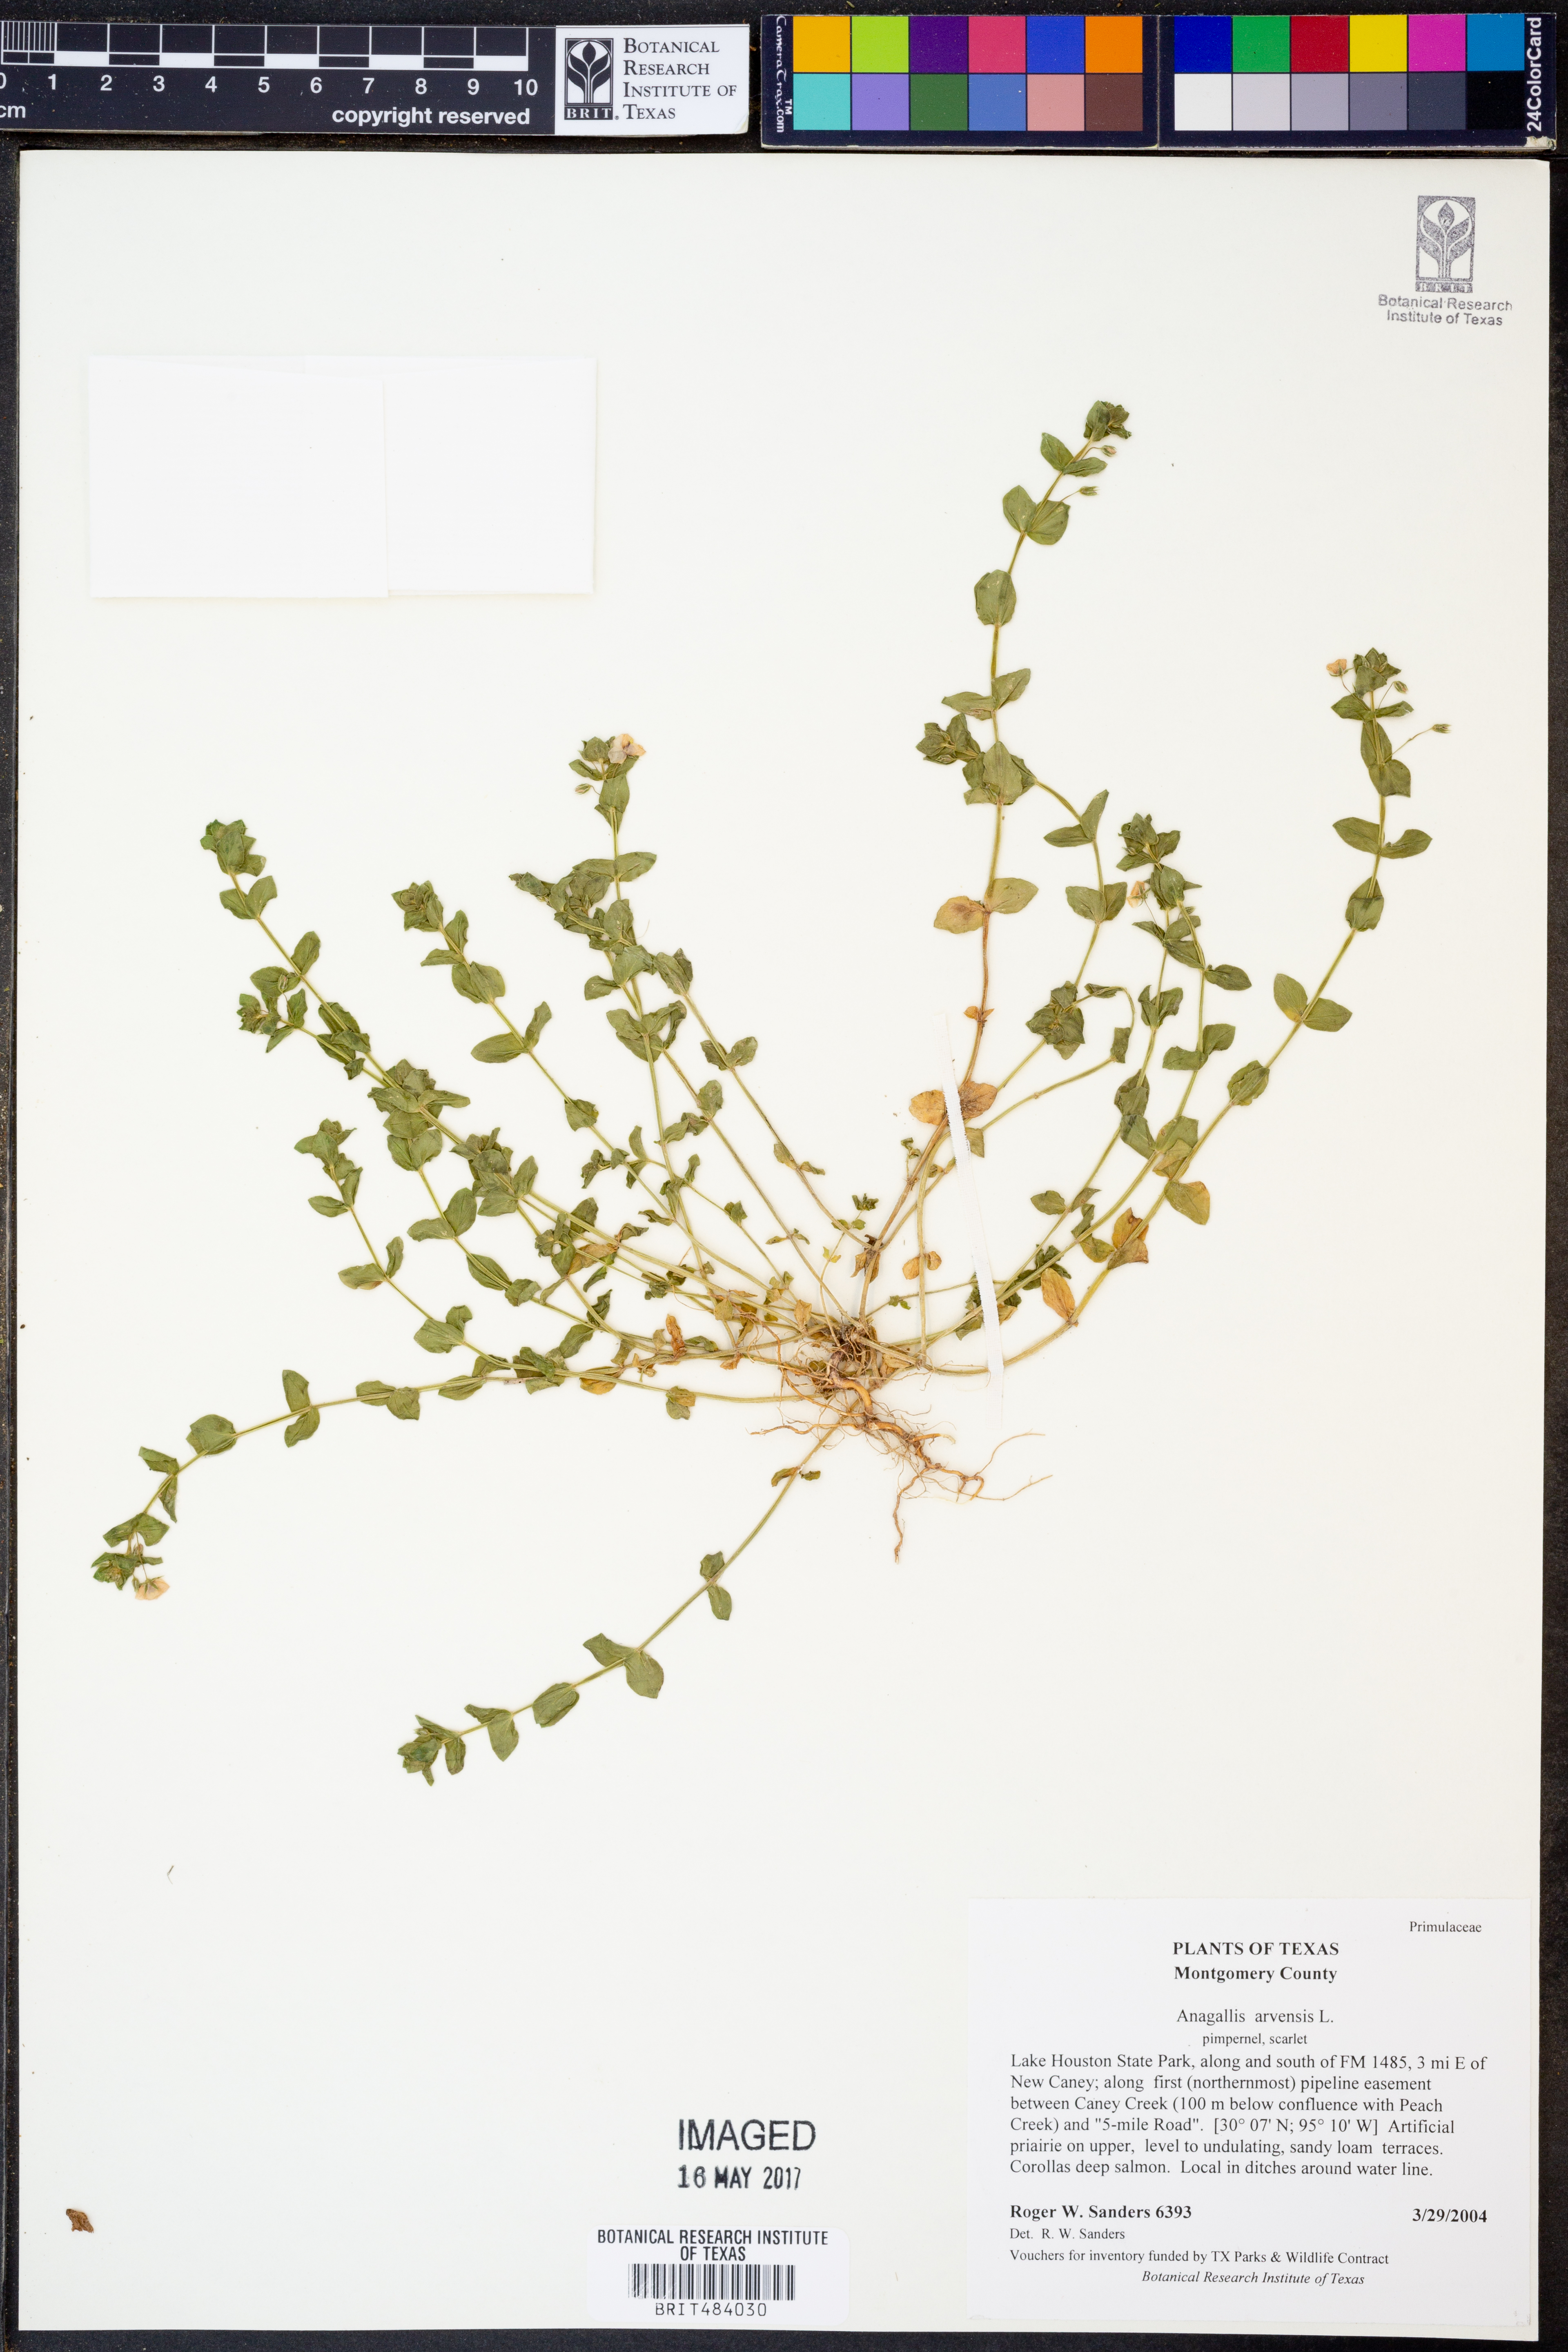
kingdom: Plantae
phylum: Tracheophyta
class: Magnoliopsida
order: Ericales
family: Primulaceae
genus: Lysimachia
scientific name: Lysimachia arvensis
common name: Scarlet pimpernel
